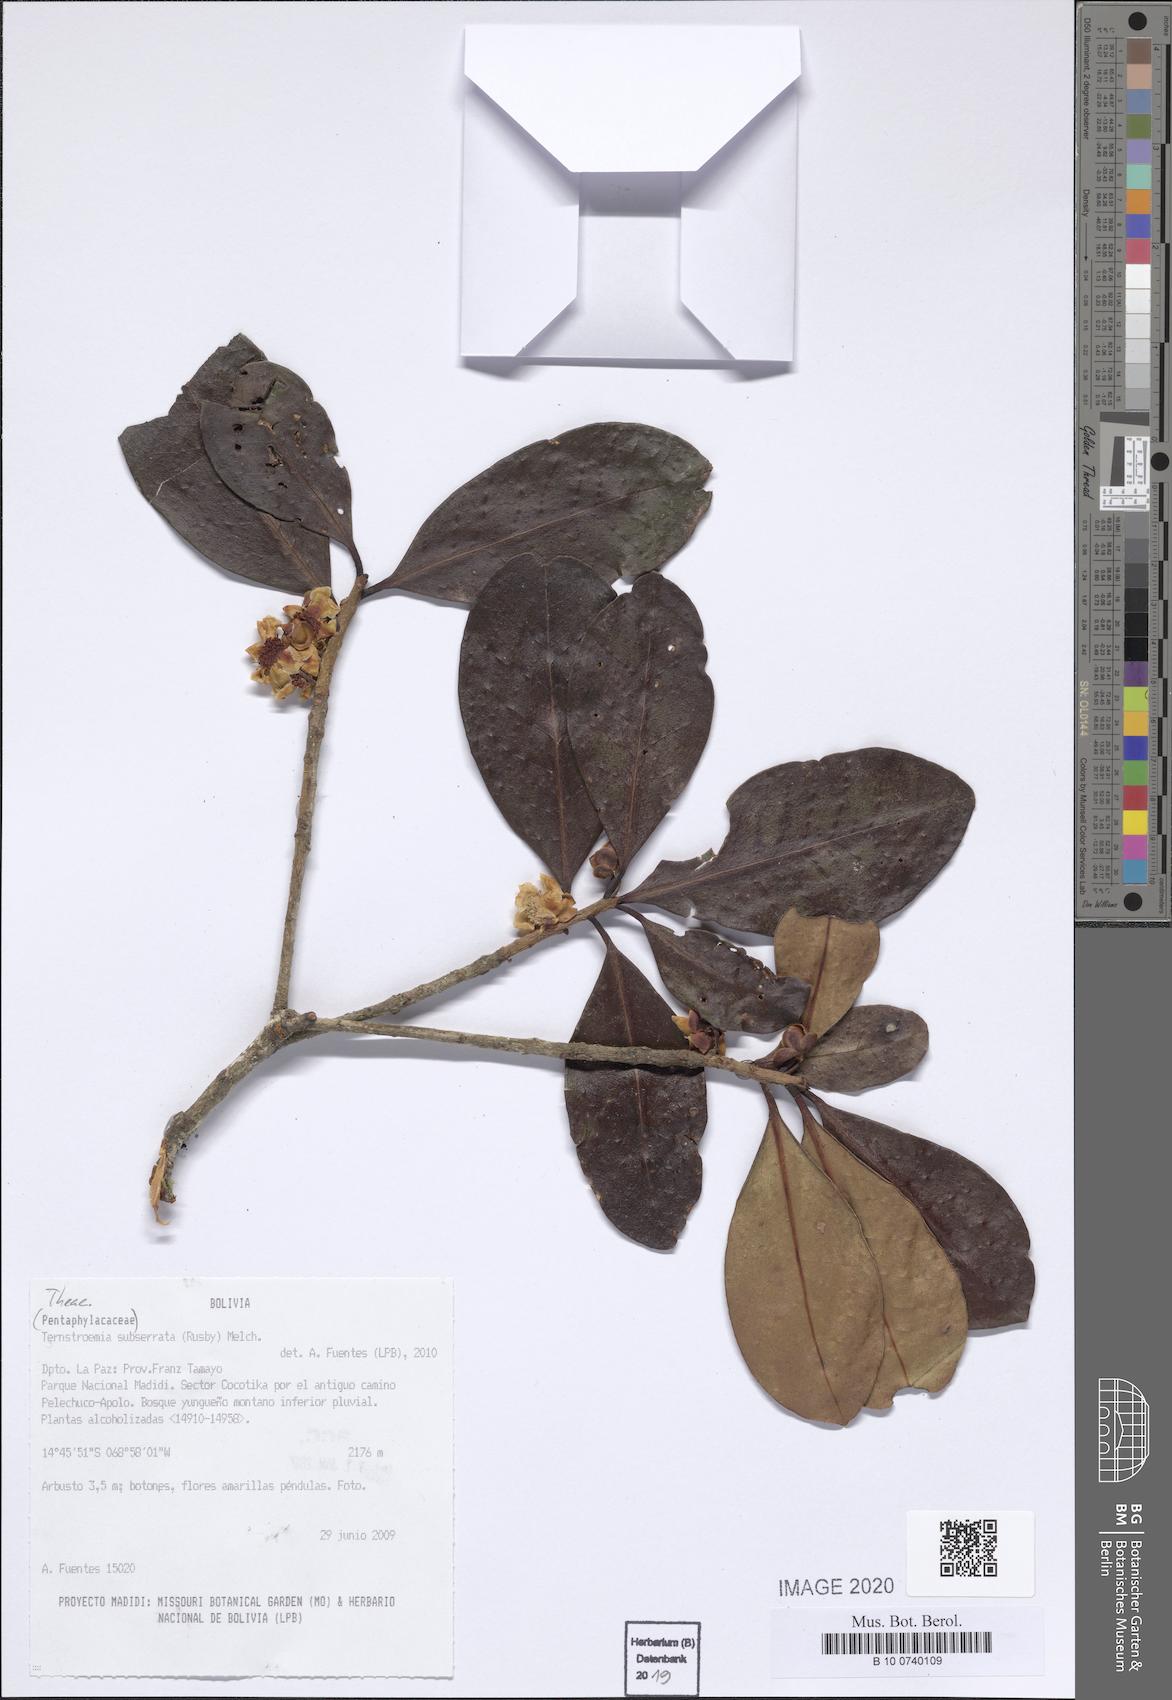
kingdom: Plantae
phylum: Tracheophyta
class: Magnoliopsida
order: Ericales
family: Pentaphylacaceae
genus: Ternstroemia
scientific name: Ternstroemia subserrata
